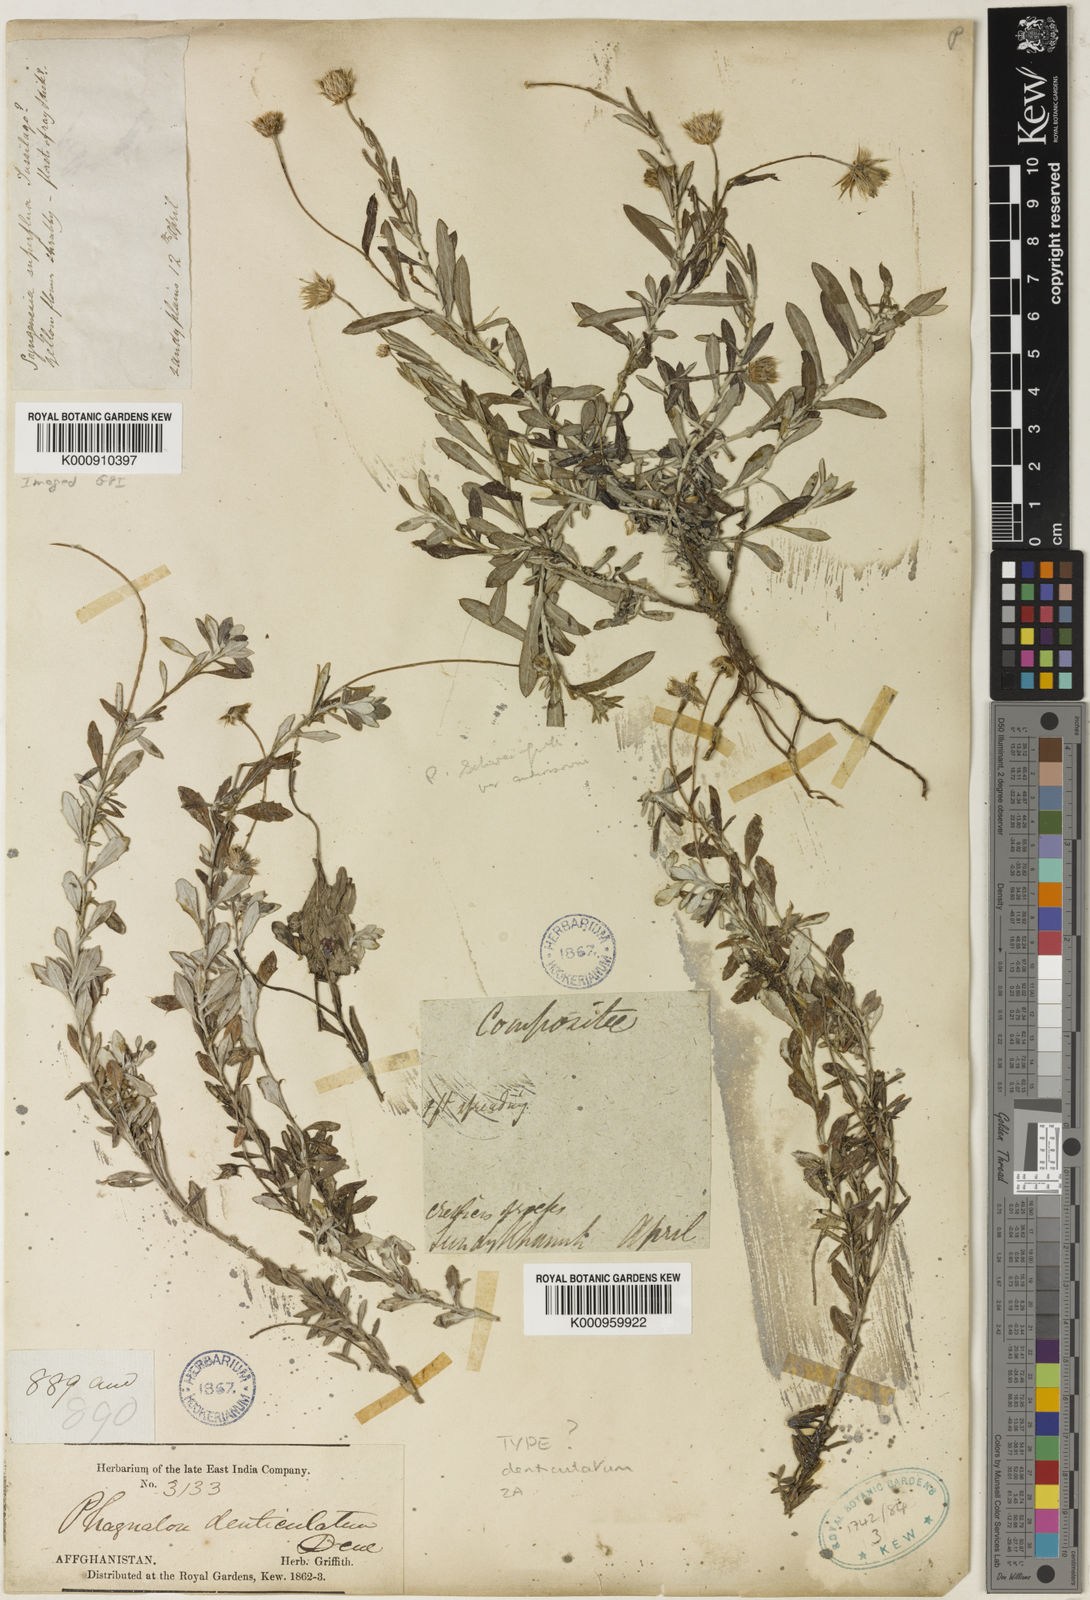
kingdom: Plantae
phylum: Tracheophyta
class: Magnoliopsida
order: Asterales
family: Asteraceae
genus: Phagnalon
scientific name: Phagnalon niveum
